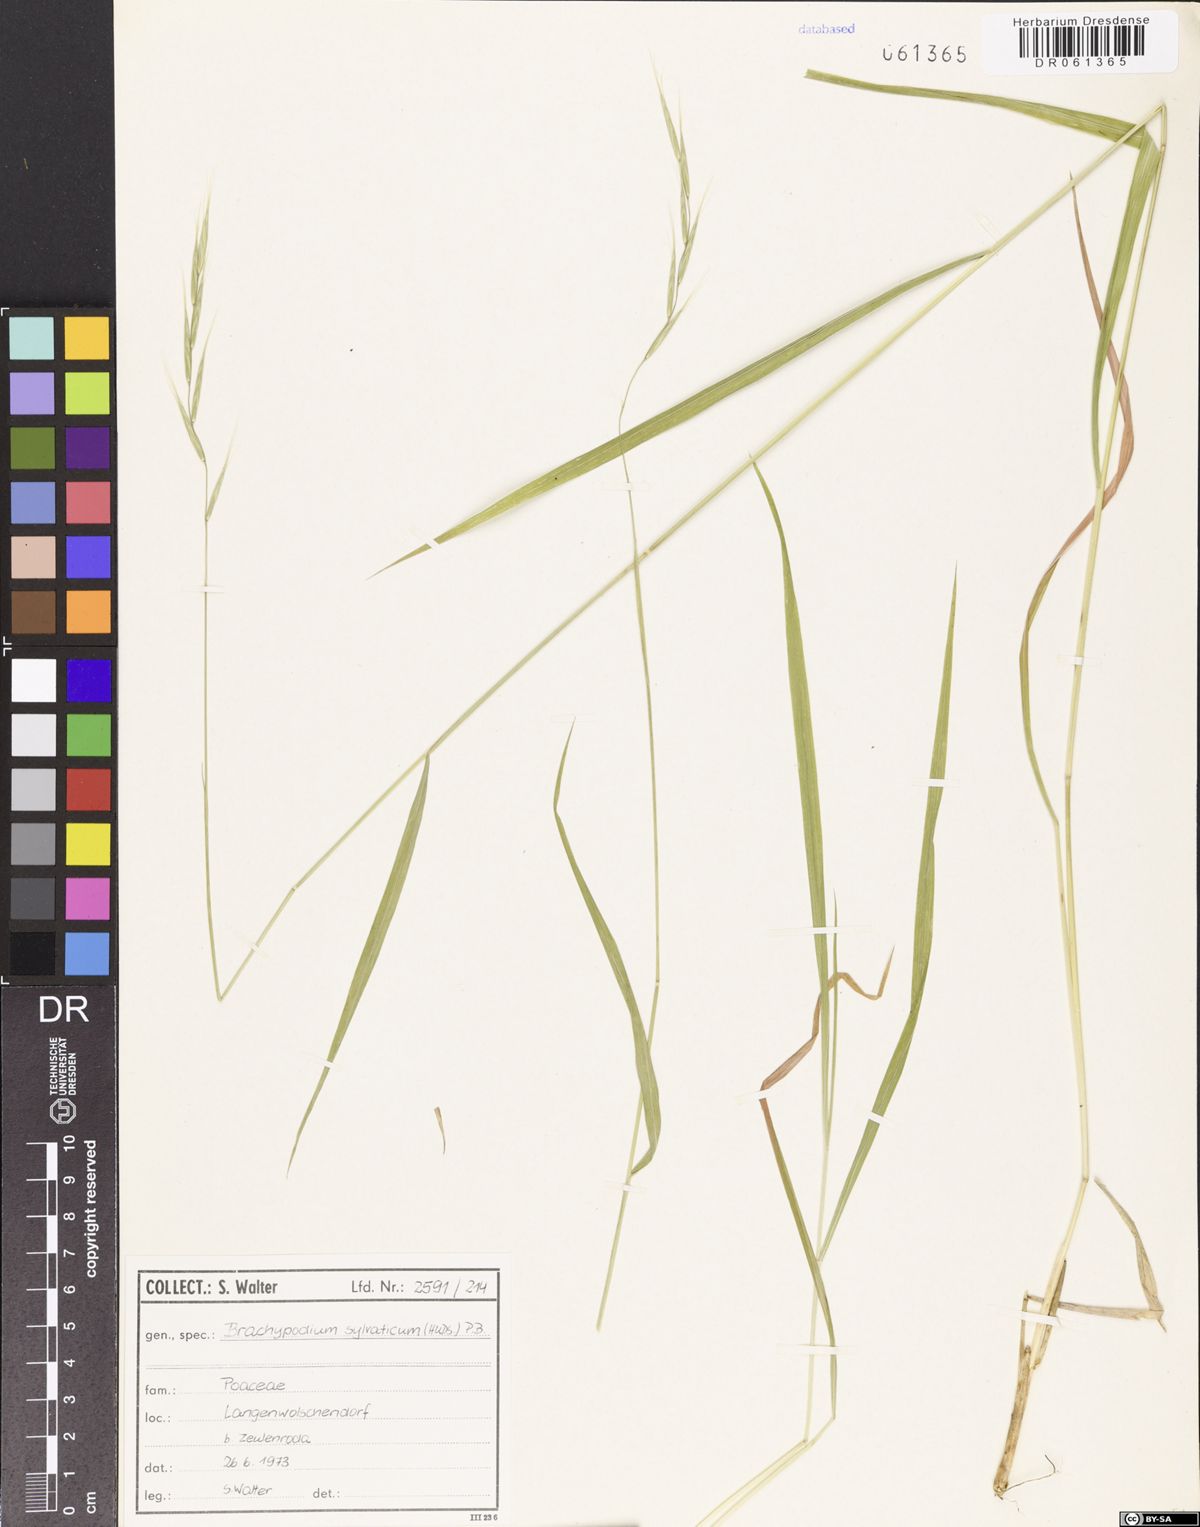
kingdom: Plantae
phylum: Tracheophyta
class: Liliopsida
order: Poales
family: Poaceae
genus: Brachypodium
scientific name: Brachypodium sylvaticum
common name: False-brome
